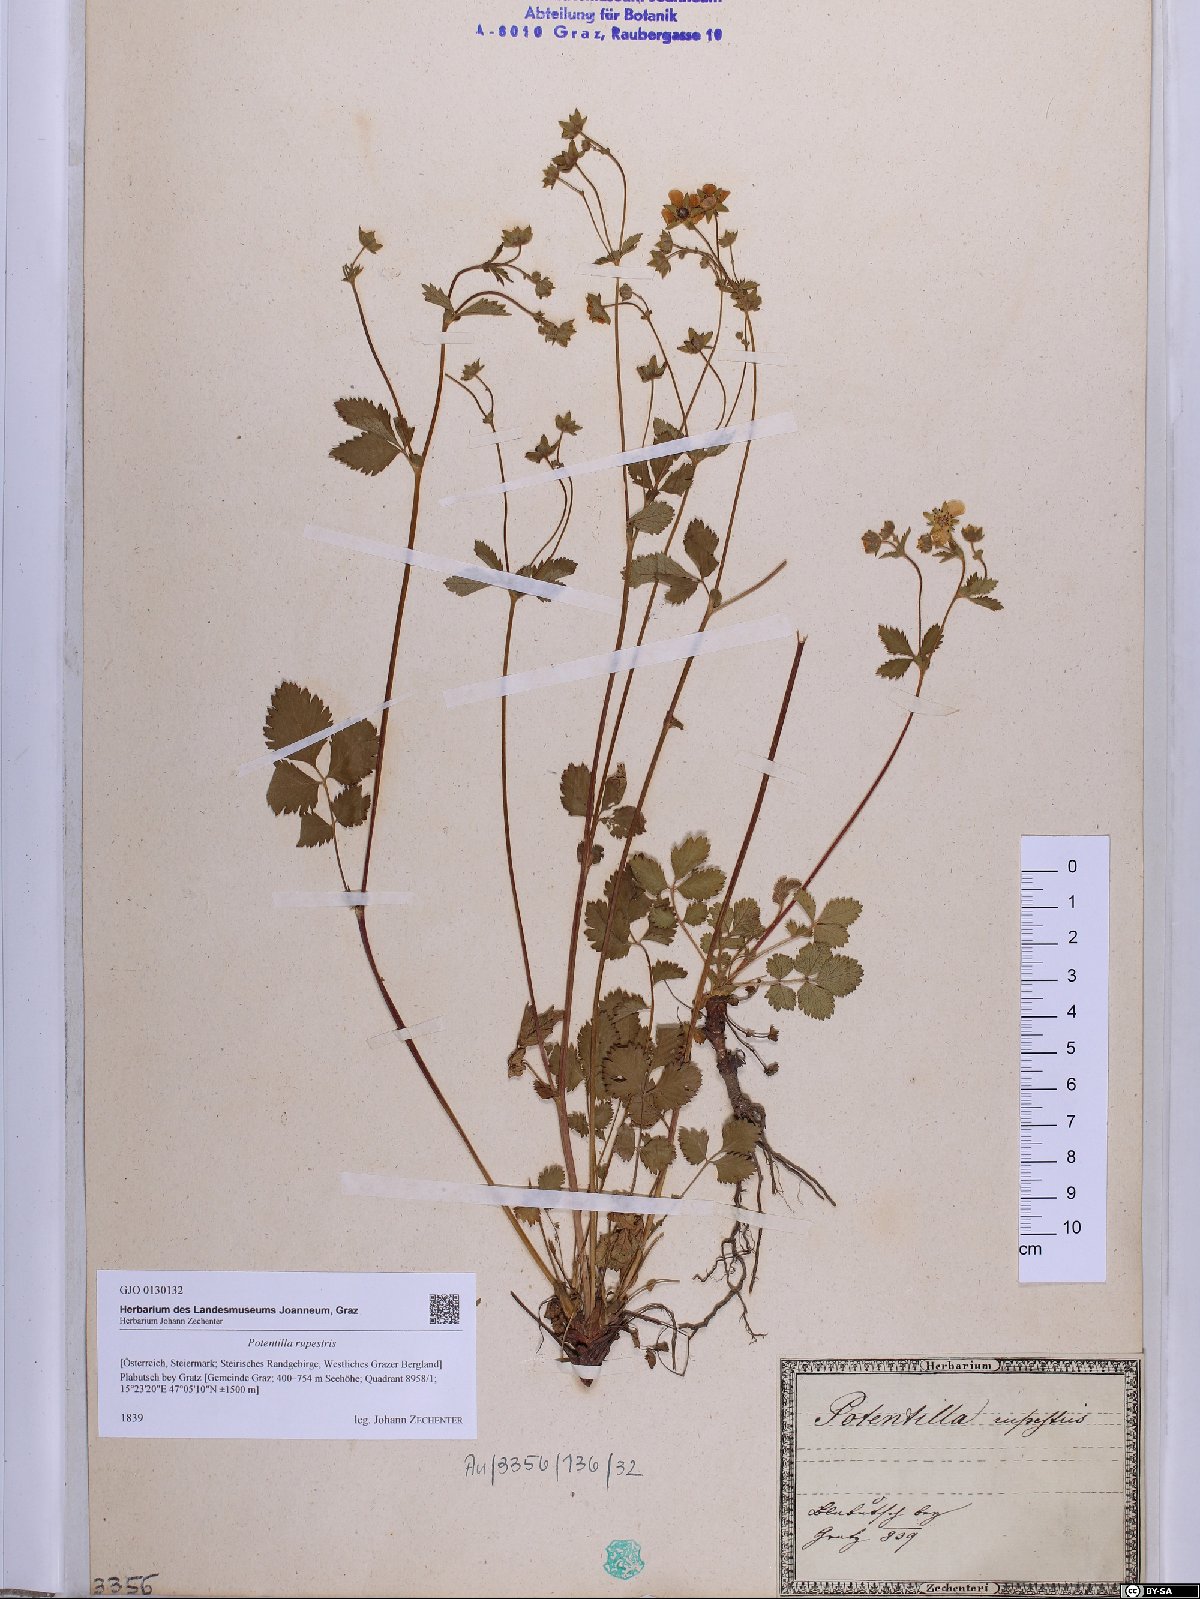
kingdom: Plantae
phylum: Tracheophyta
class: Magnoliopsida
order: Rosales
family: Rosaceae
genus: Drymocallis
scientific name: Drymocallis rupestris
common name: Rock cinquefoil
